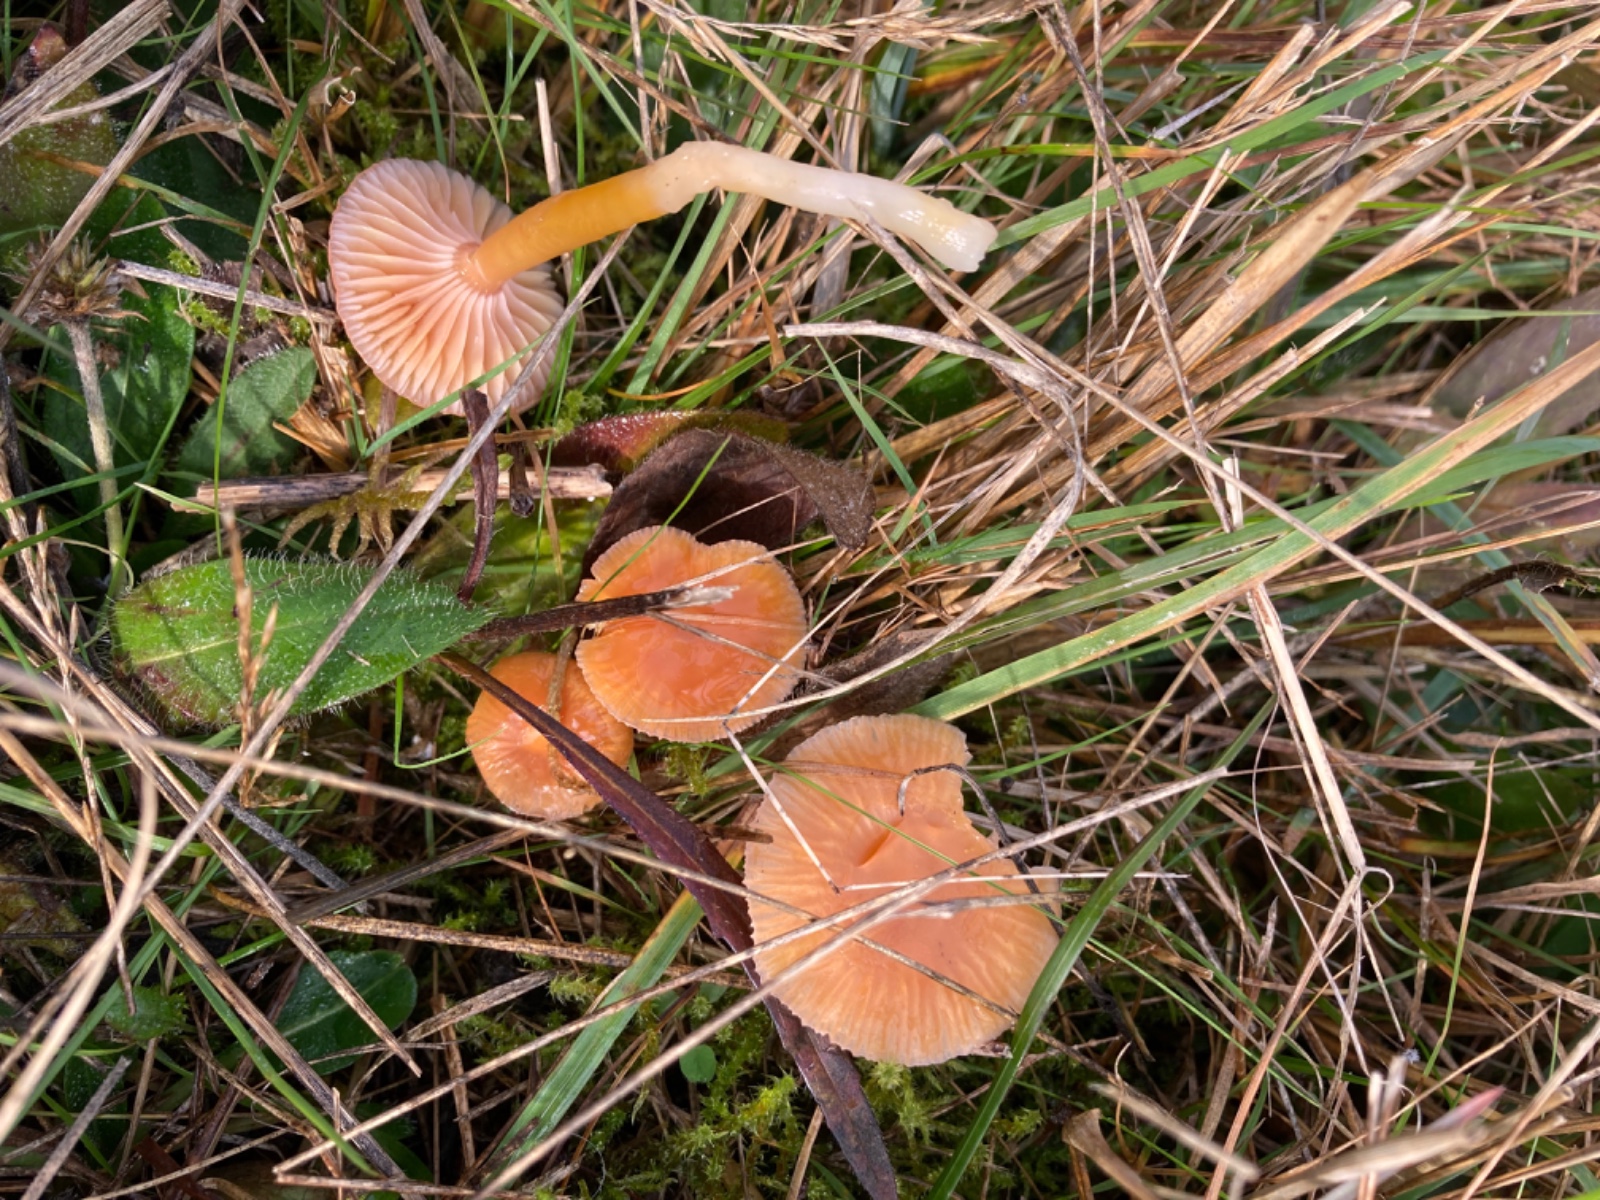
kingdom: Fungi
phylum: Basidiomycota
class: Agaricomycetes
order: Agaricales
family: Hygrophoraceae
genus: Gliophorus
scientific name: Gliophorus laetus
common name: brusk-vokshat
